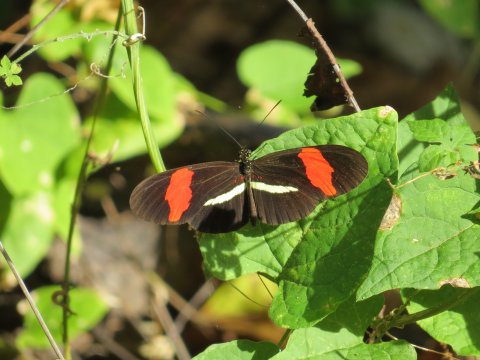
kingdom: Animalia
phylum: Arthropoda
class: Insecta
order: Lepidoptera
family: Nymphalidae
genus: Heliconius
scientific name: Heliconius erato
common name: Erato Heliconian
